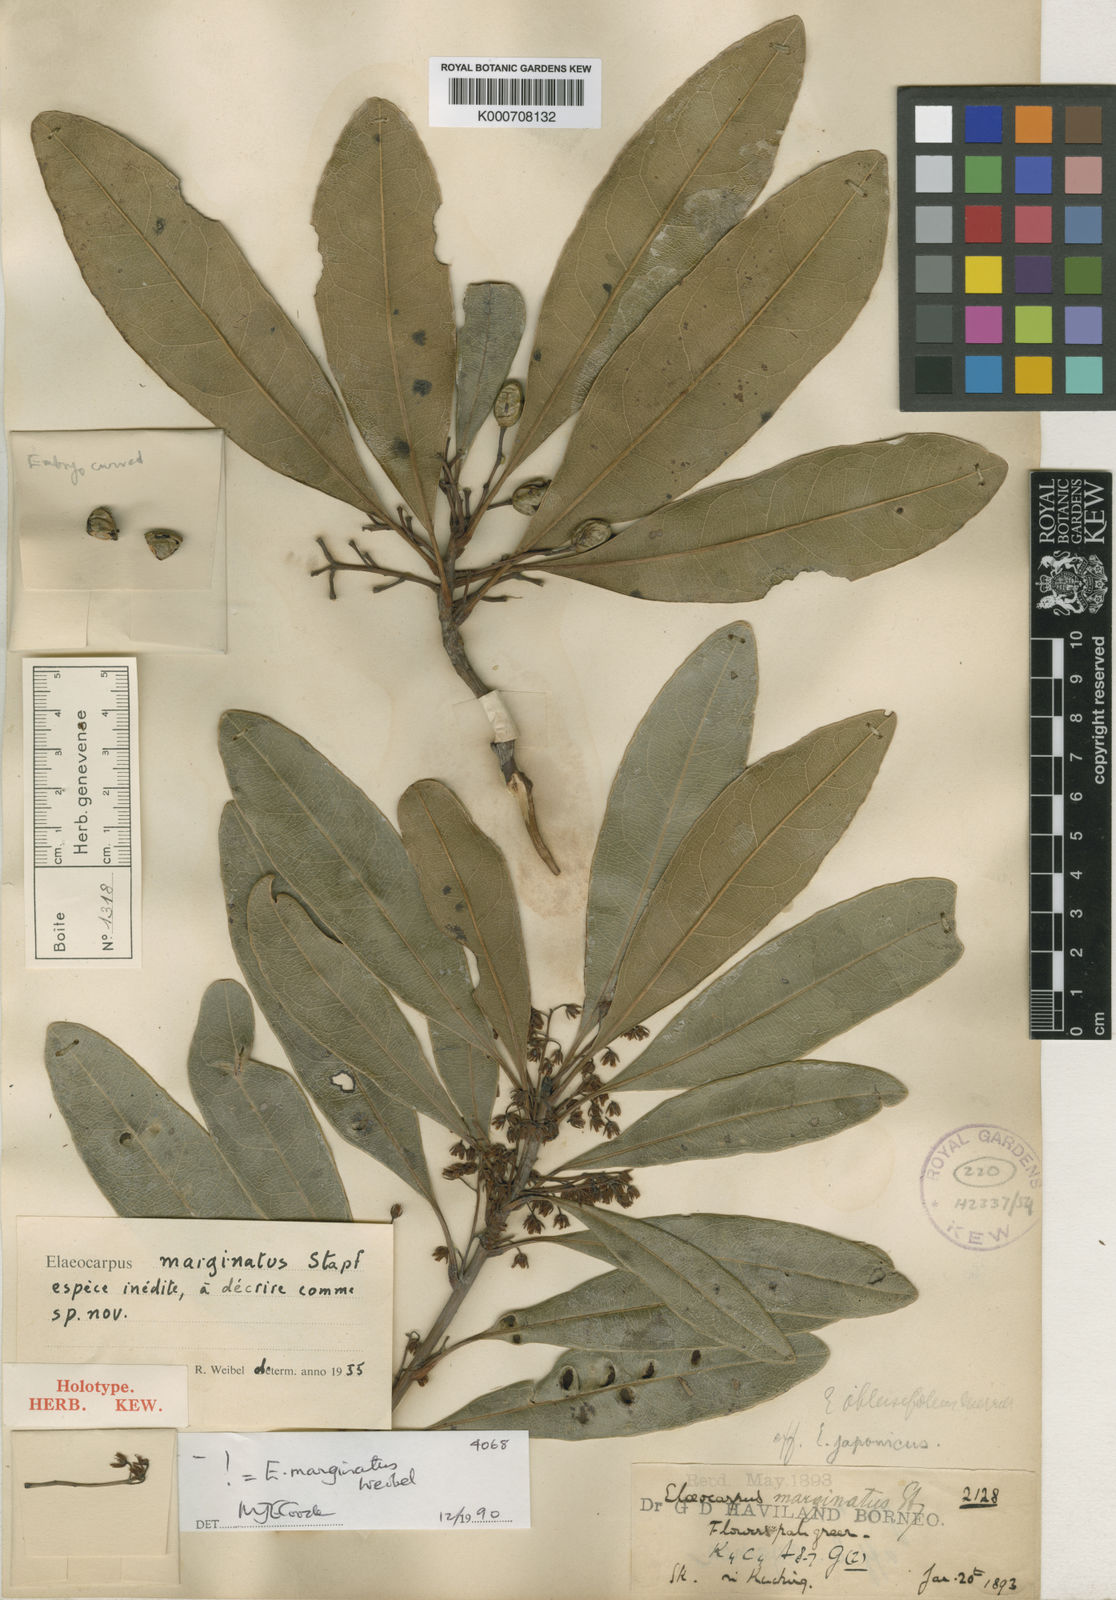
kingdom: Plantae
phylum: Tracheophyta
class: Magnoliopsida
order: Oxalidales
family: Elaeocarpaceae
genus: Elaeocarpus
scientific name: Elaeocarpus marginatus
